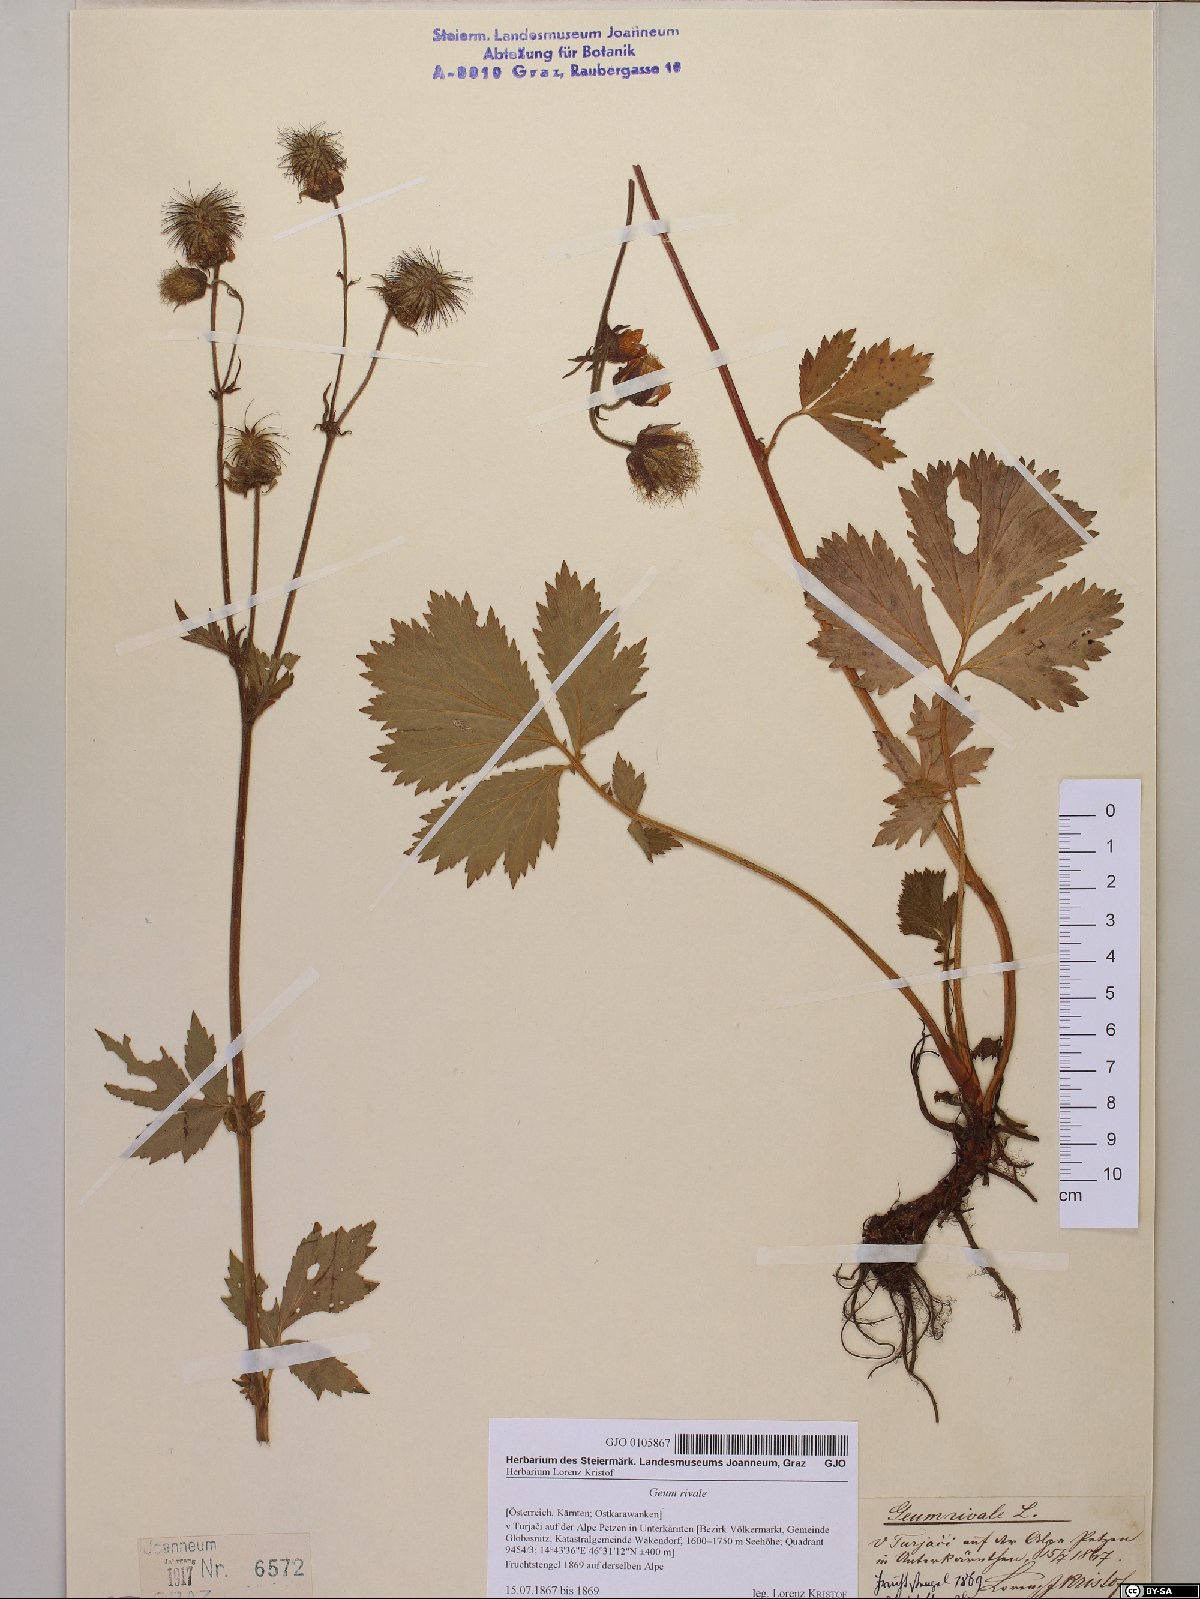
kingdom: Plantae
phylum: Tracheophyta
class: Magnoliopsida
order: Rosales
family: Rosaceae
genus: Geum
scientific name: Geum rivale
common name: Water avens
